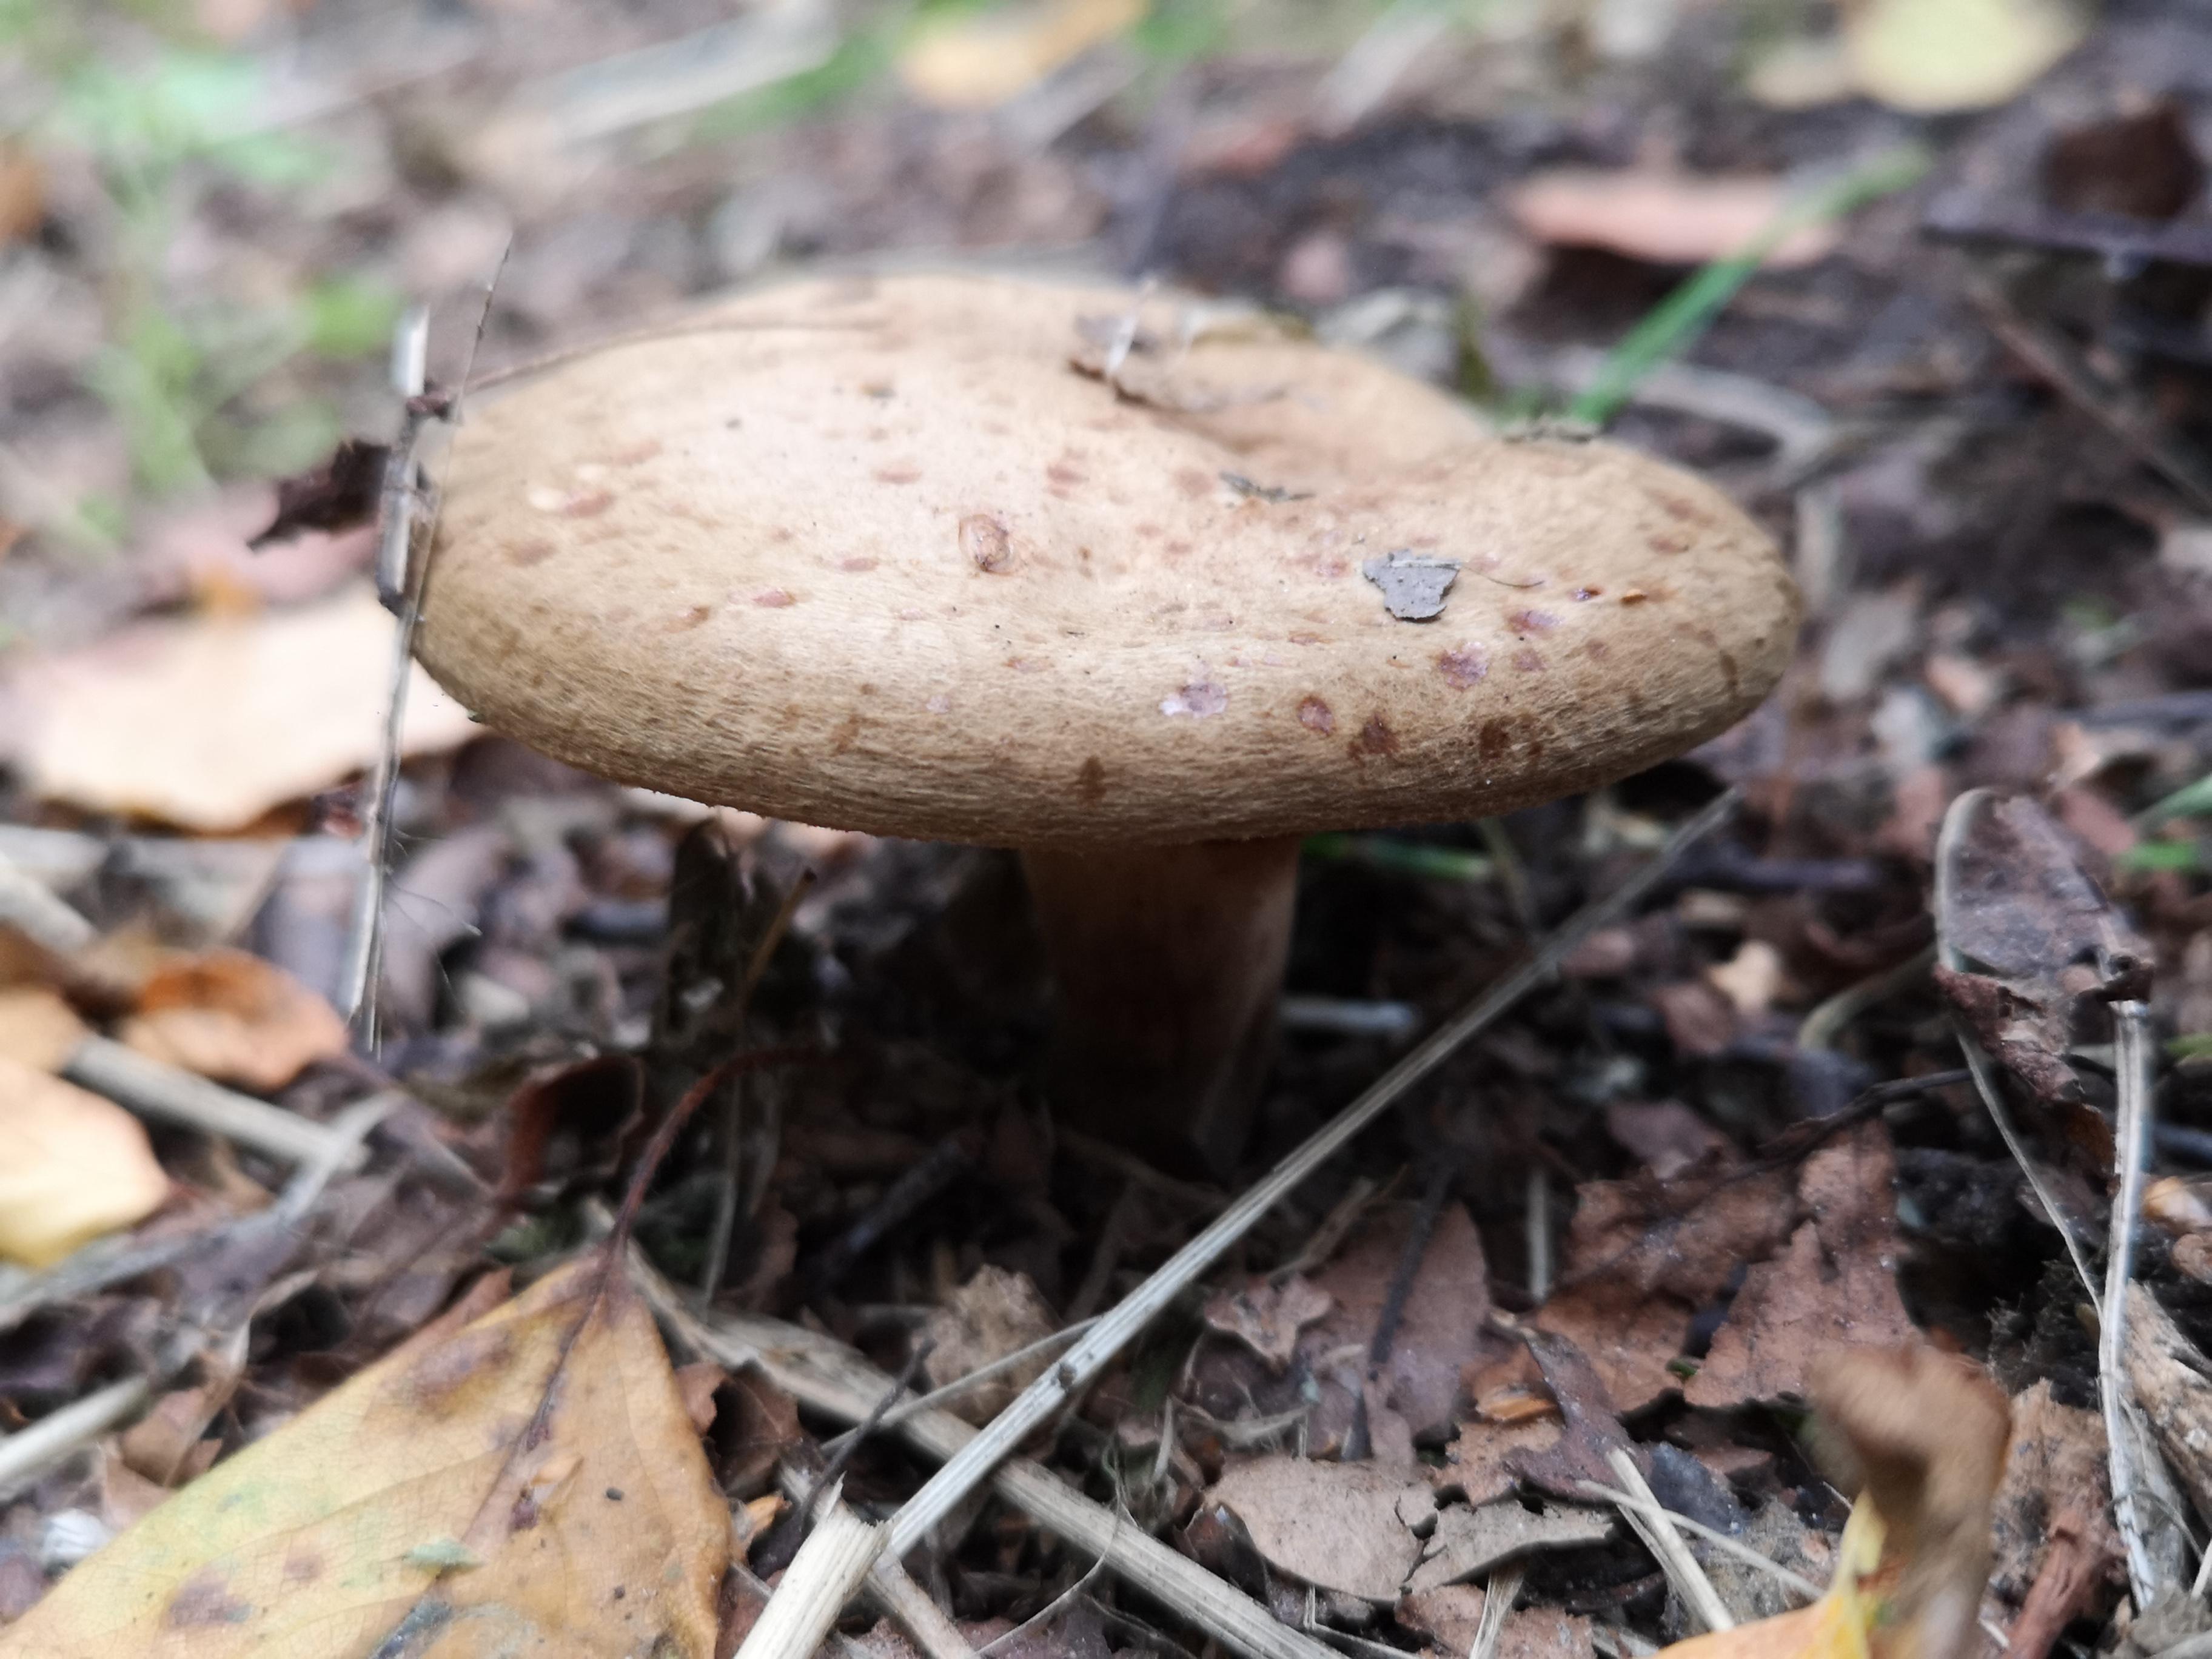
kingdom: Fungi
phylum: Basidiomycota
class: Agaricomycetes
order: Boletales
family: Paxillaceae
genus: Paxillus
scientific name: Paxillus
